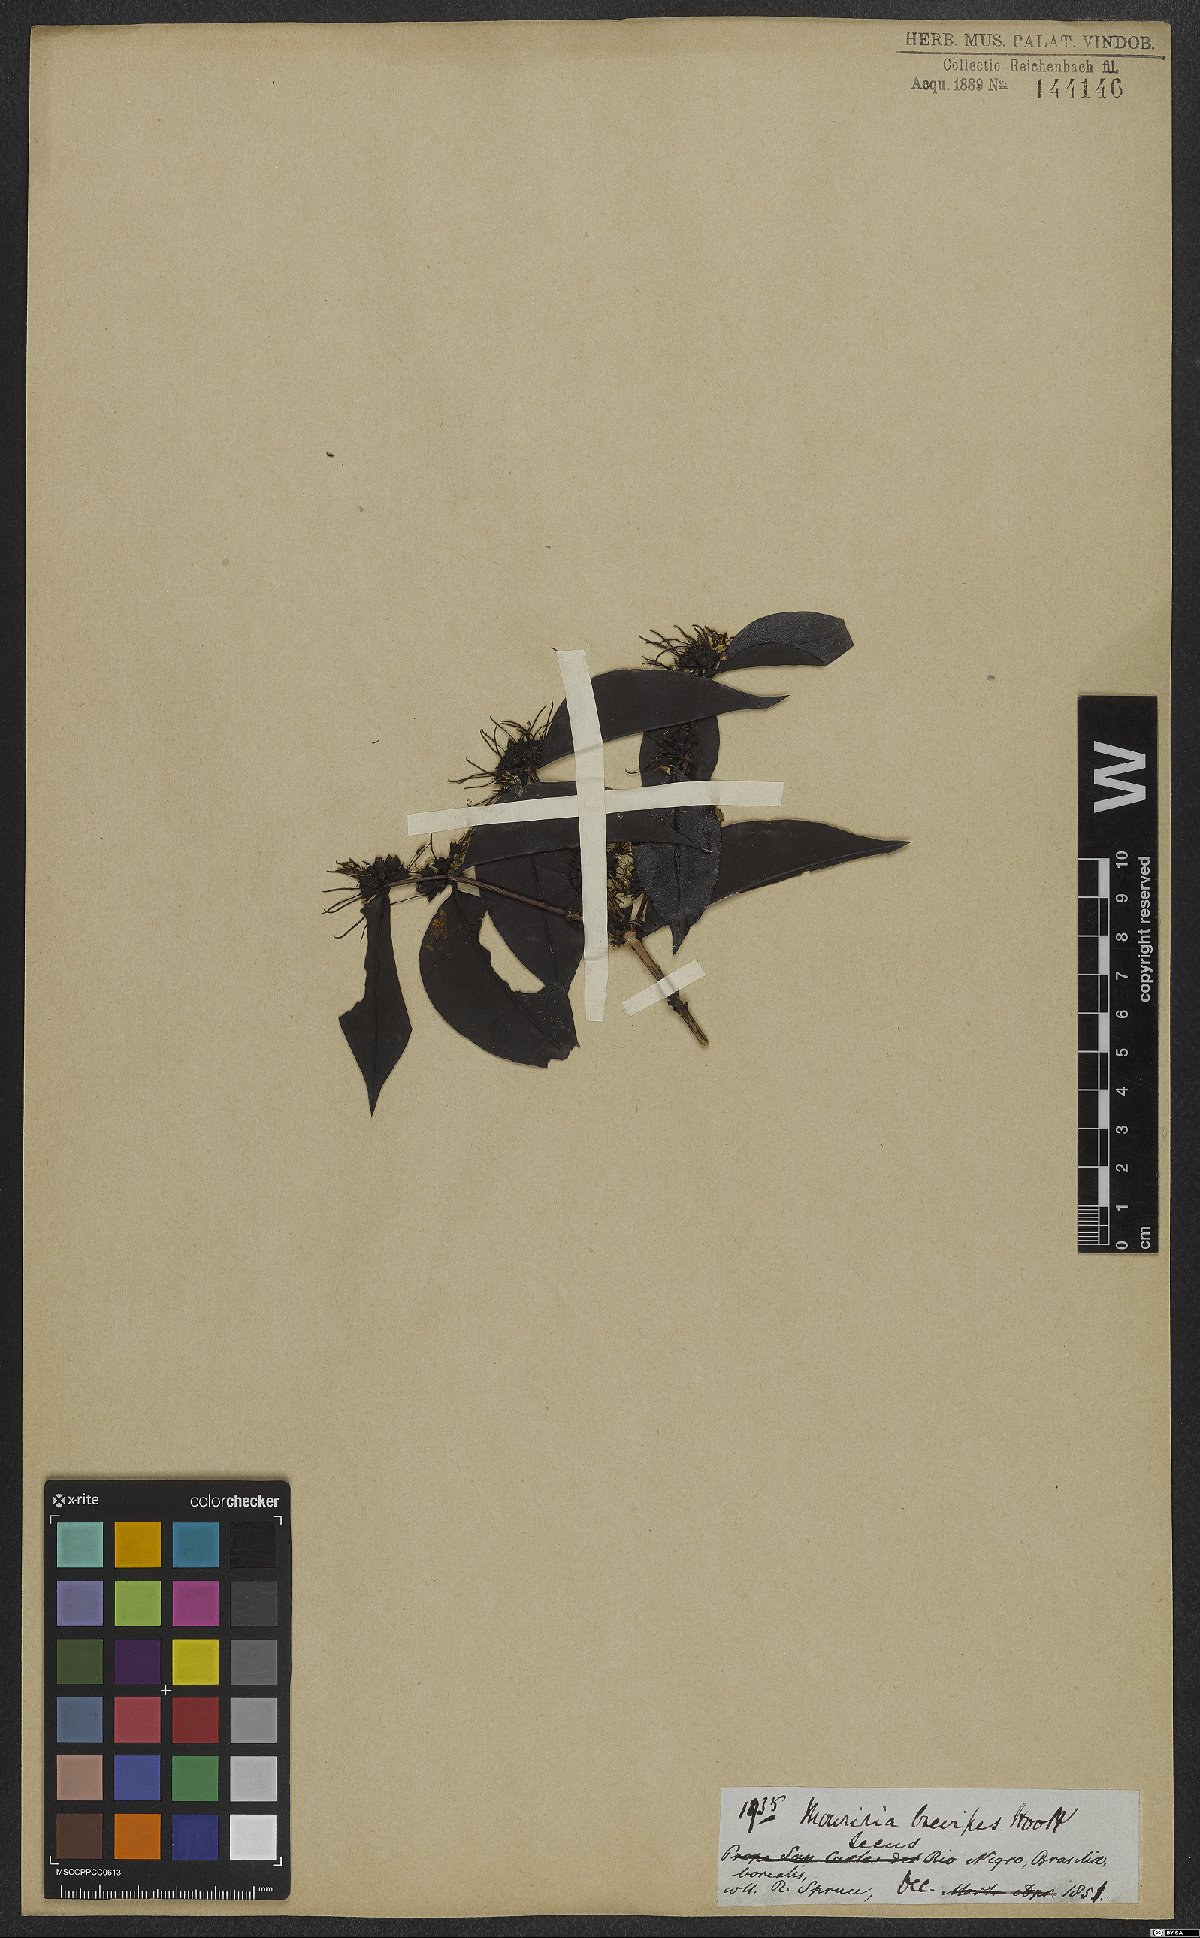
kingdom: Plantae
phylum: Tracheophyta
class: Magnoliopsida
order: Myrtales
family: Melastomataceae
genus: Mouriri
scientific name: Mouriri brevipes
